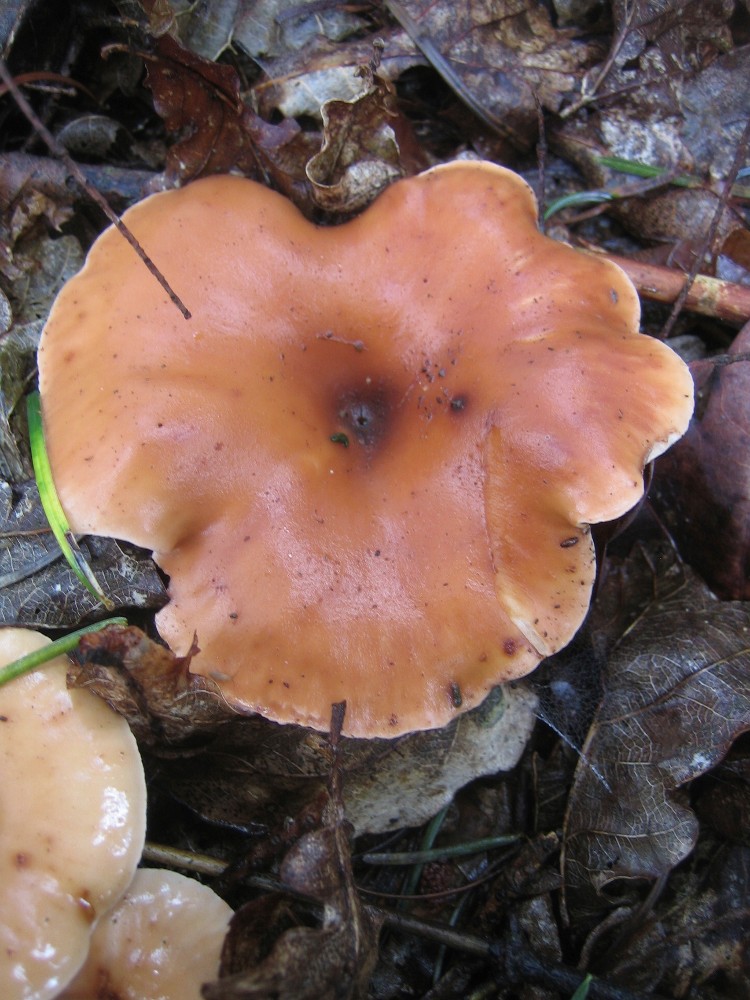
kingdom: Fungi
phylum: Basidiomycota
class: Agaricomycetes
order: Agaricales
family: Tricholomataceae
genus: Paralepista
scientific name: Paralepista flaccida
